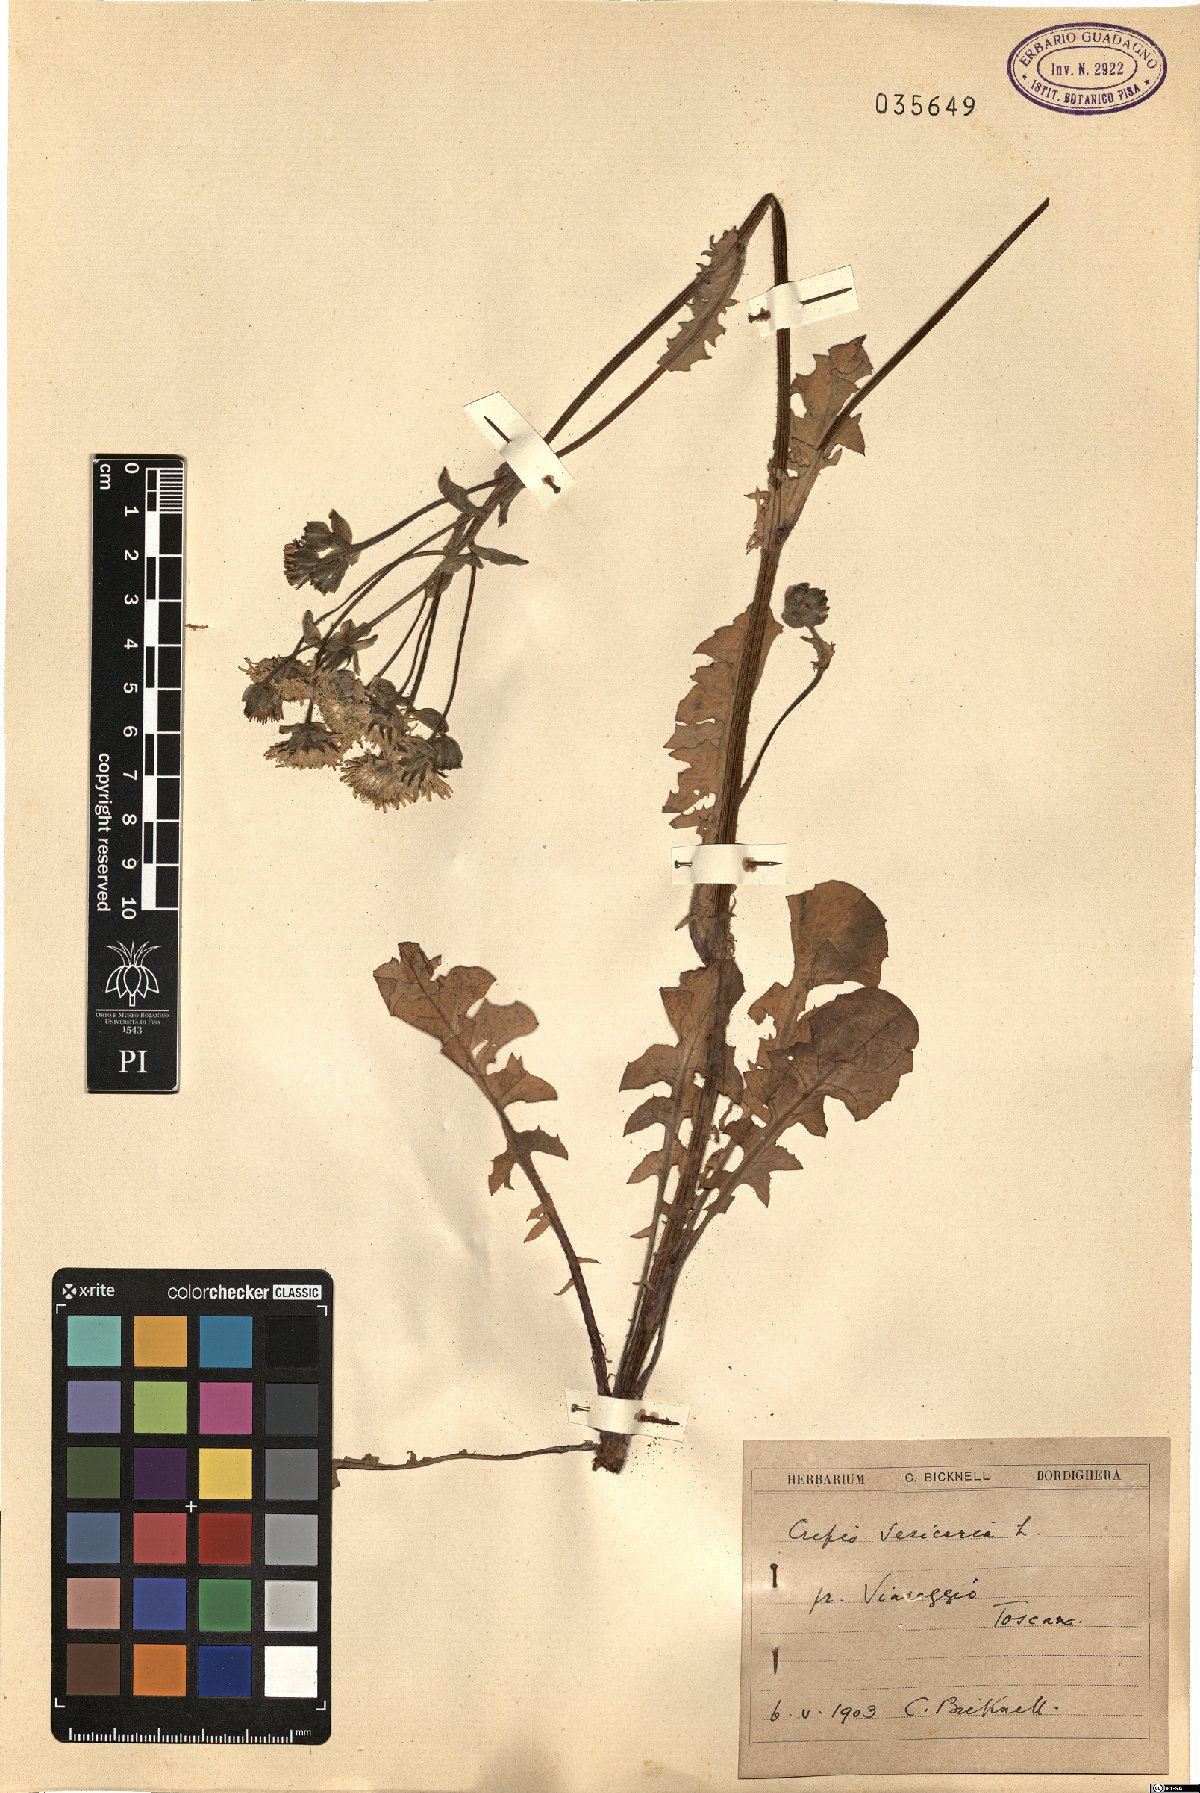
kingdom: Plantae
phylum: Tracheophyta
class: Magnoliopsida
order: Asterales
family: Asteraceae
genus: Crepis
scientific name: Crepis vesicaria
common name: Beaked hawksbeard
